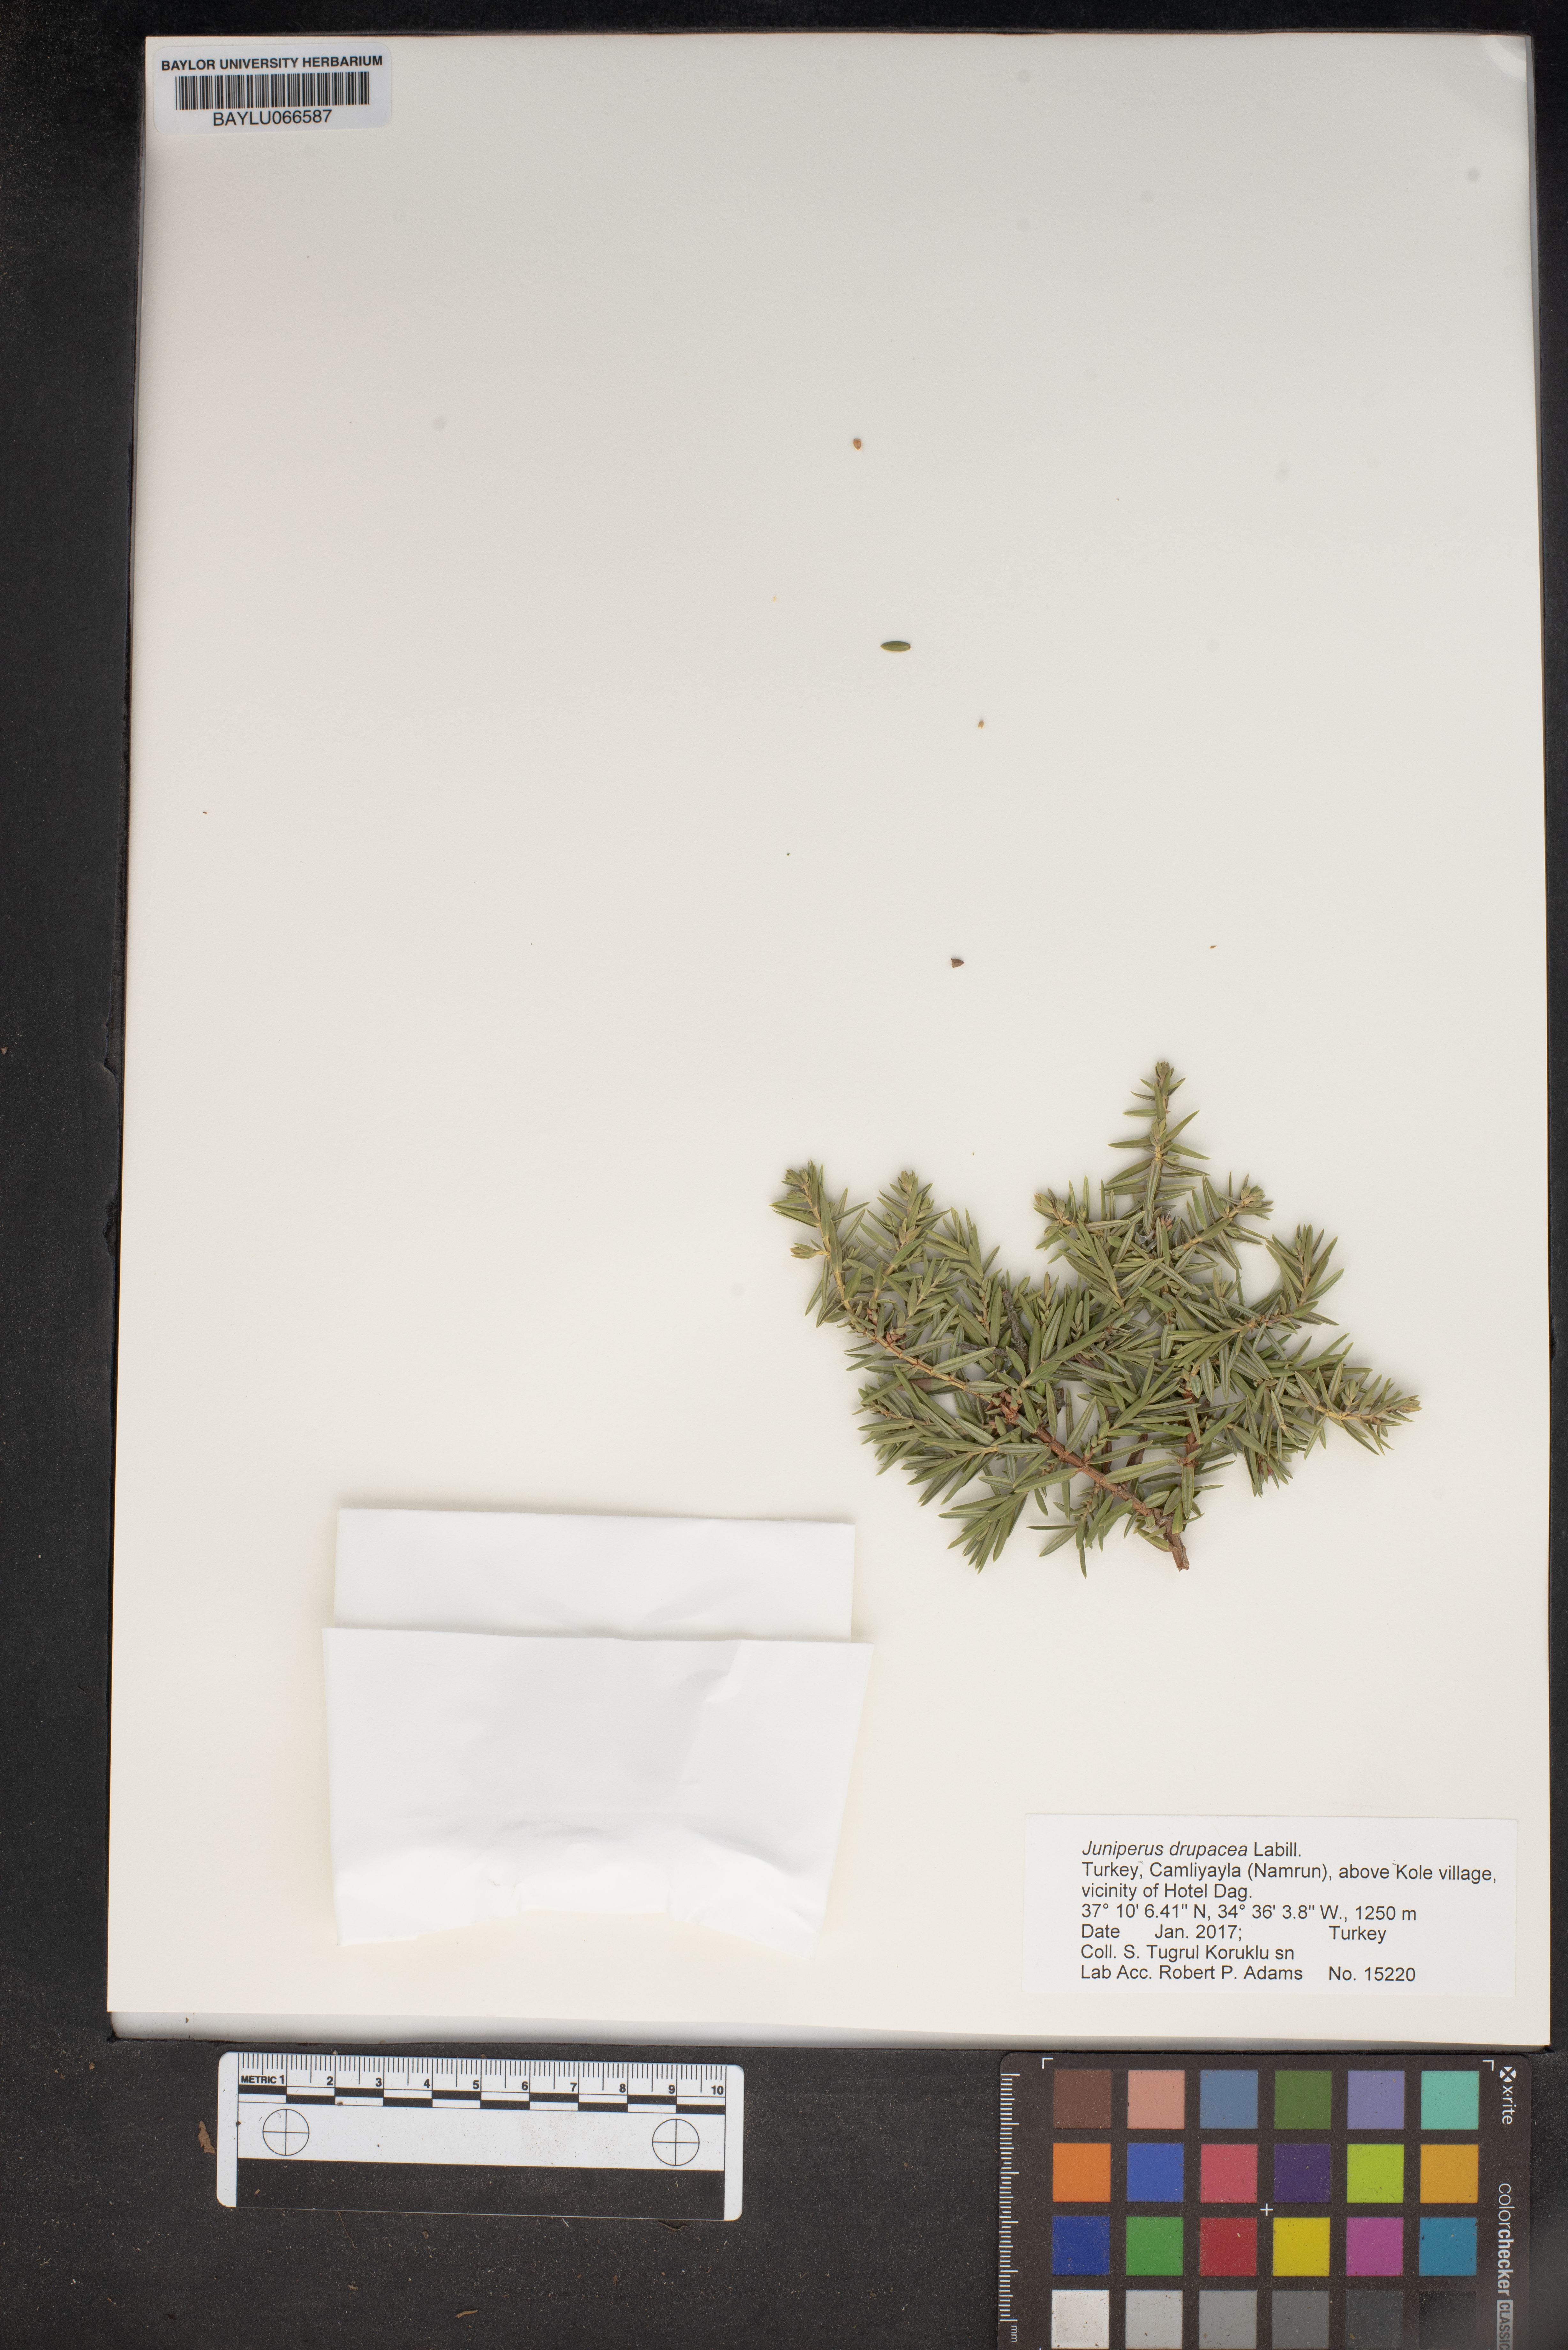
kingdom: Plantae
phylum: Tracheophyta
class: Pinopsida
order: Pinales
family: Cupressaceae
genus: Juniperus
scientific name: Juniperus drupacea
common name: Syrian juniper
